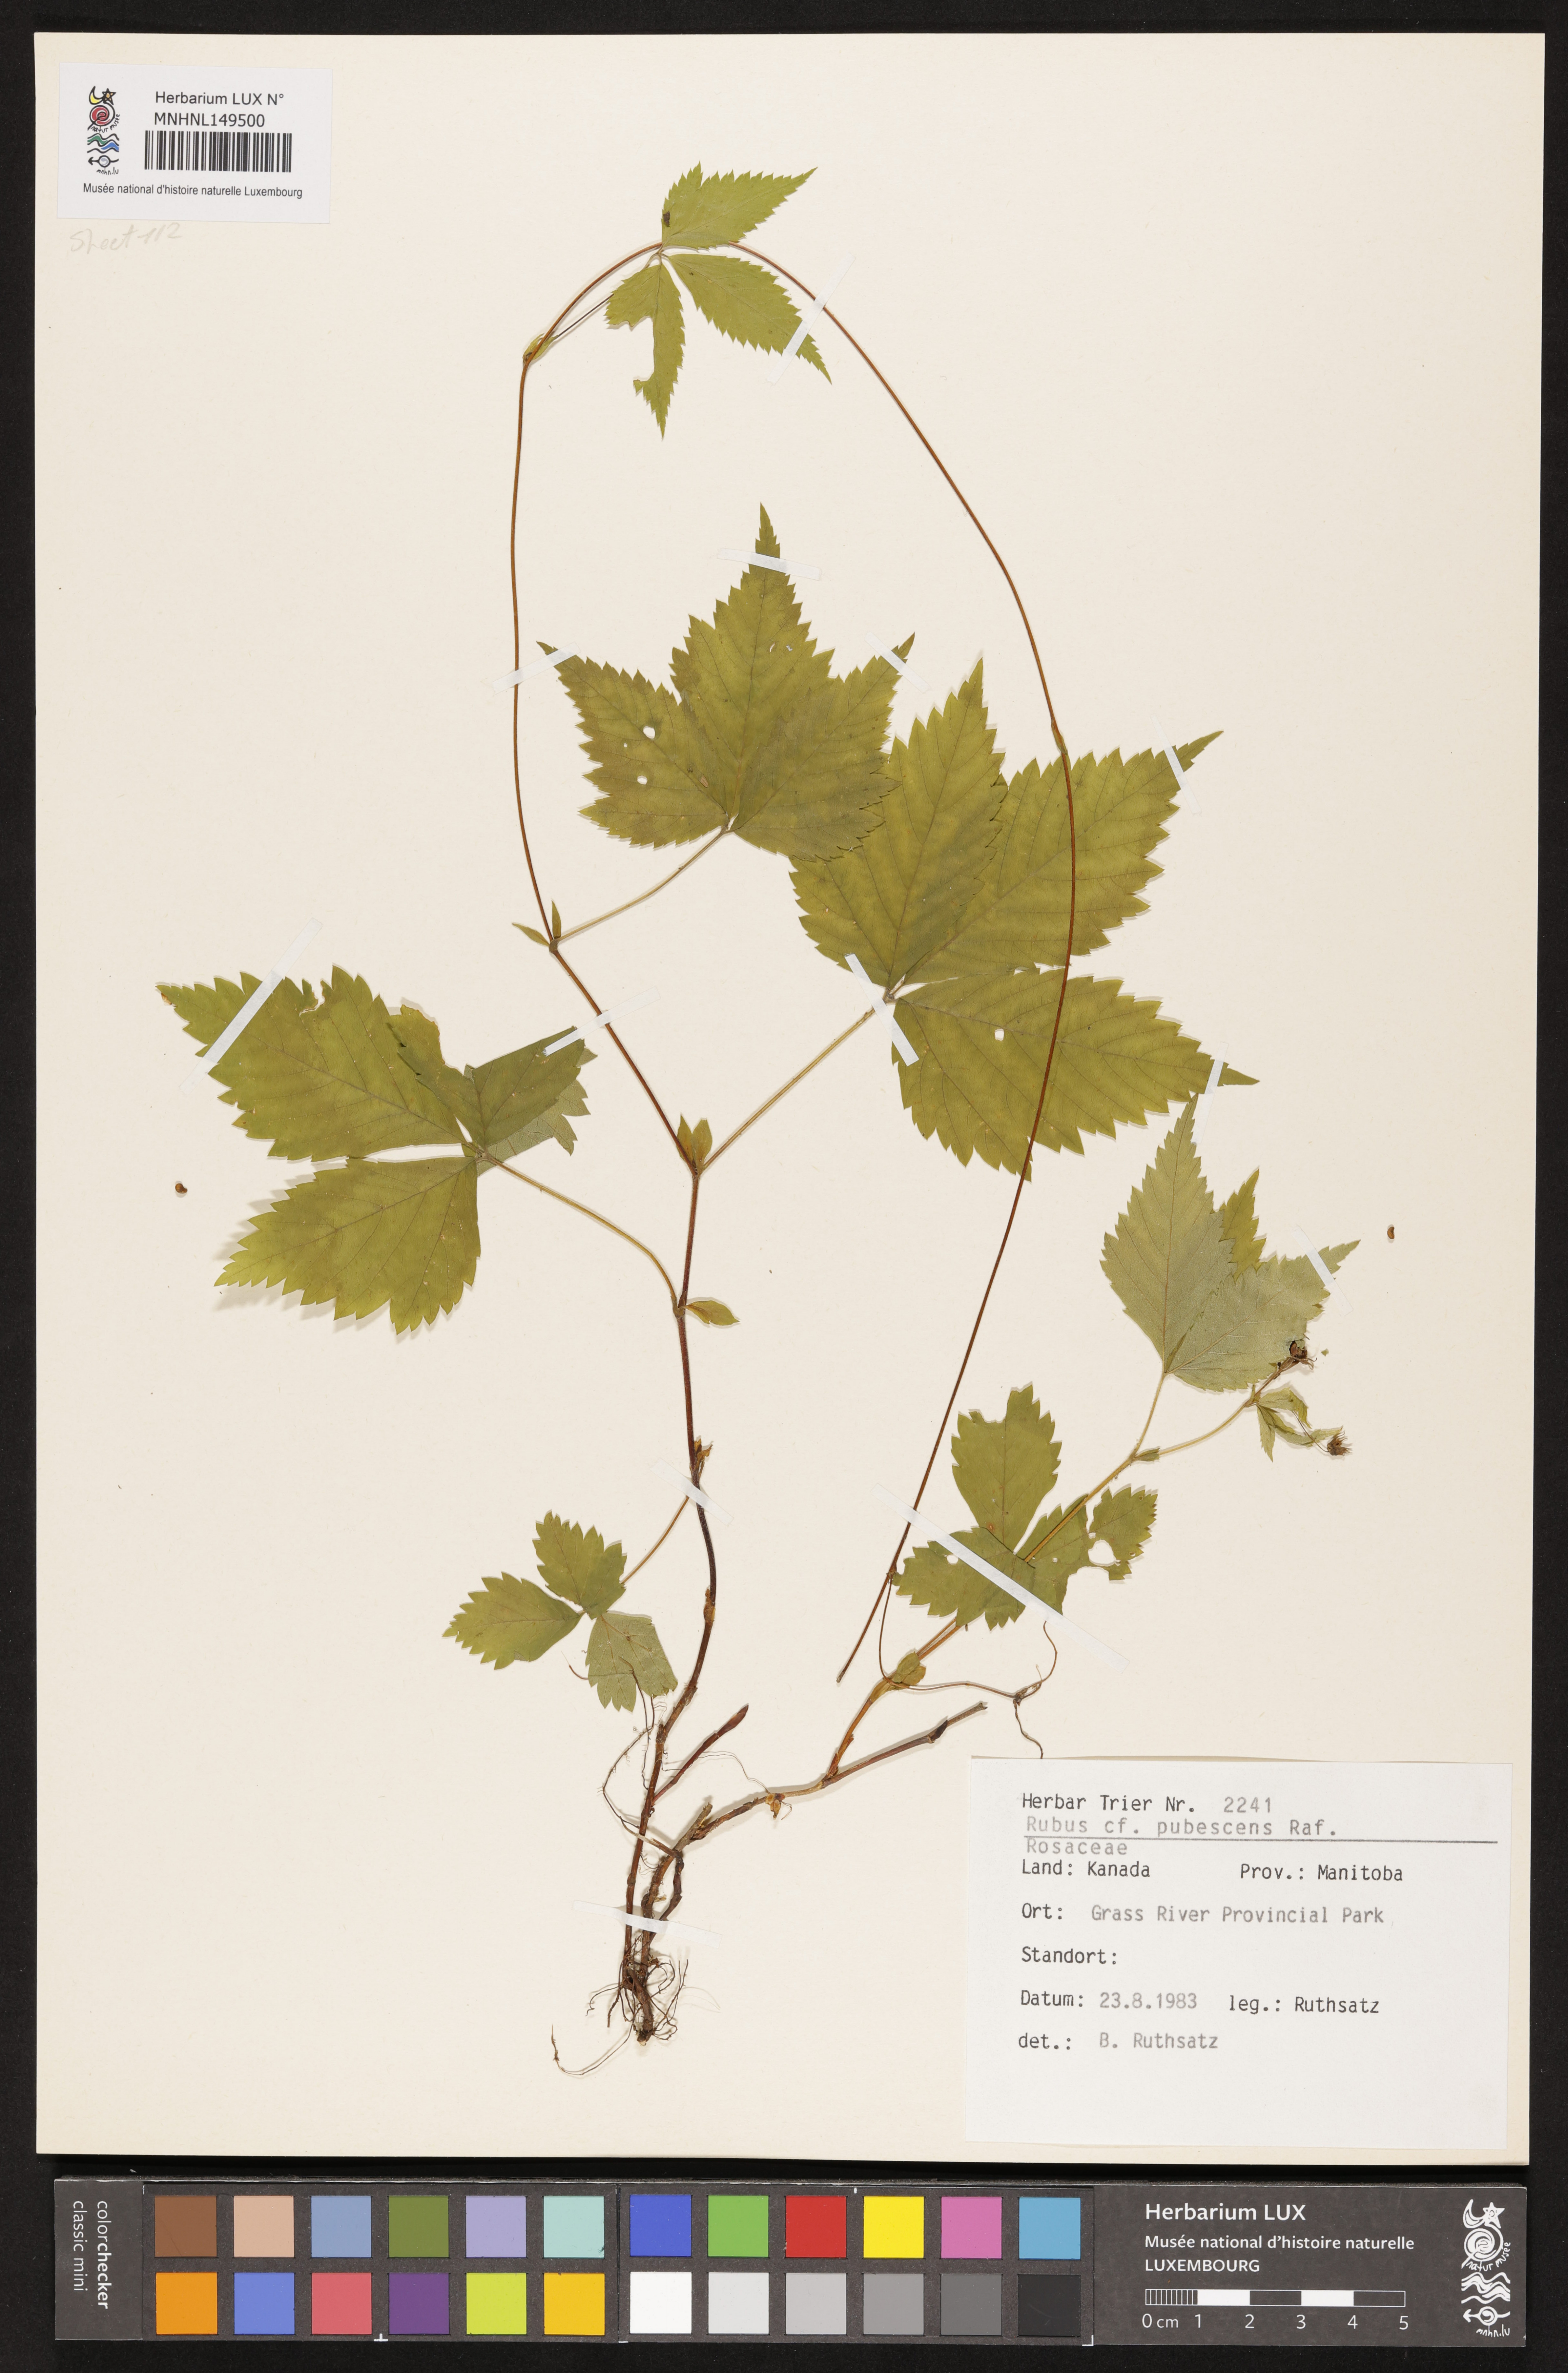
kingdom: Plantae
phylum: Tracheophyta
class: Magnoliopsida
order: Rosales
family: Rosaceae
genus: Rubus
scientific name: Rubus pubescens
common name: Dwarf raspberry
